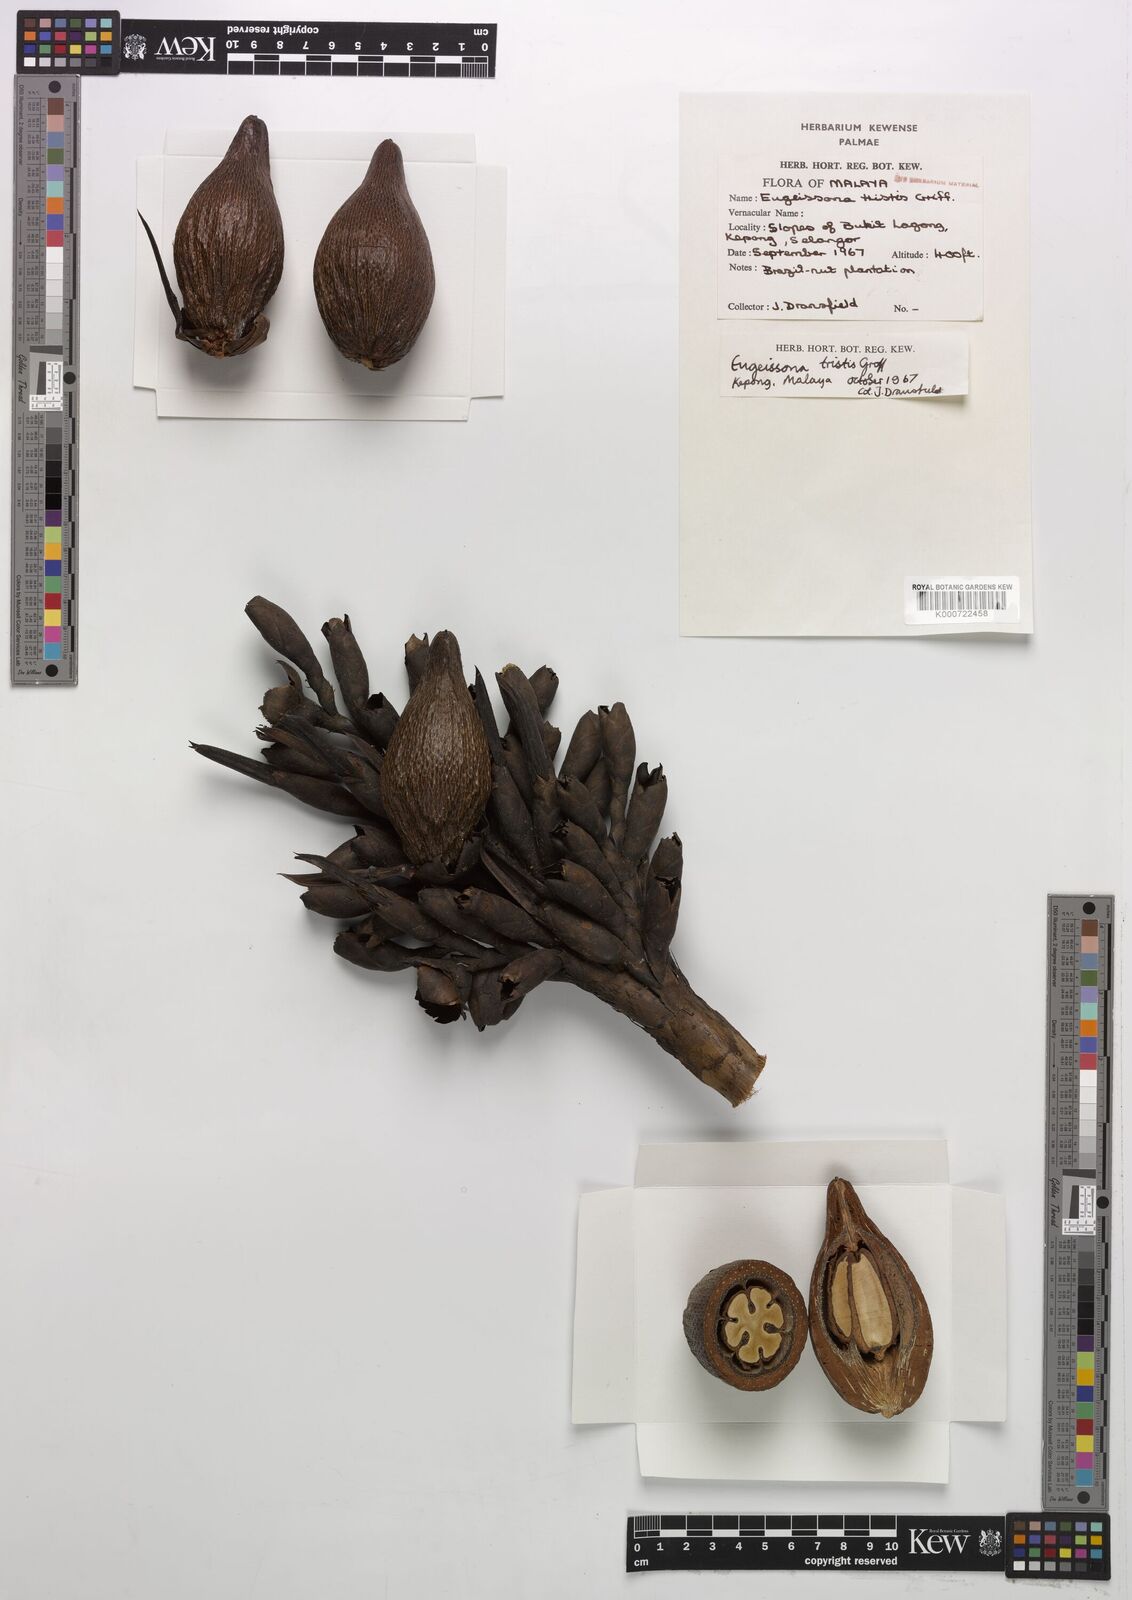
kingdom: Plantae
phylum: Tracheophyta
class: Liliopsida
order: Arecales
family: Arecaceae
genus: Eugeissona
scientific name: Eugeissona tristis
